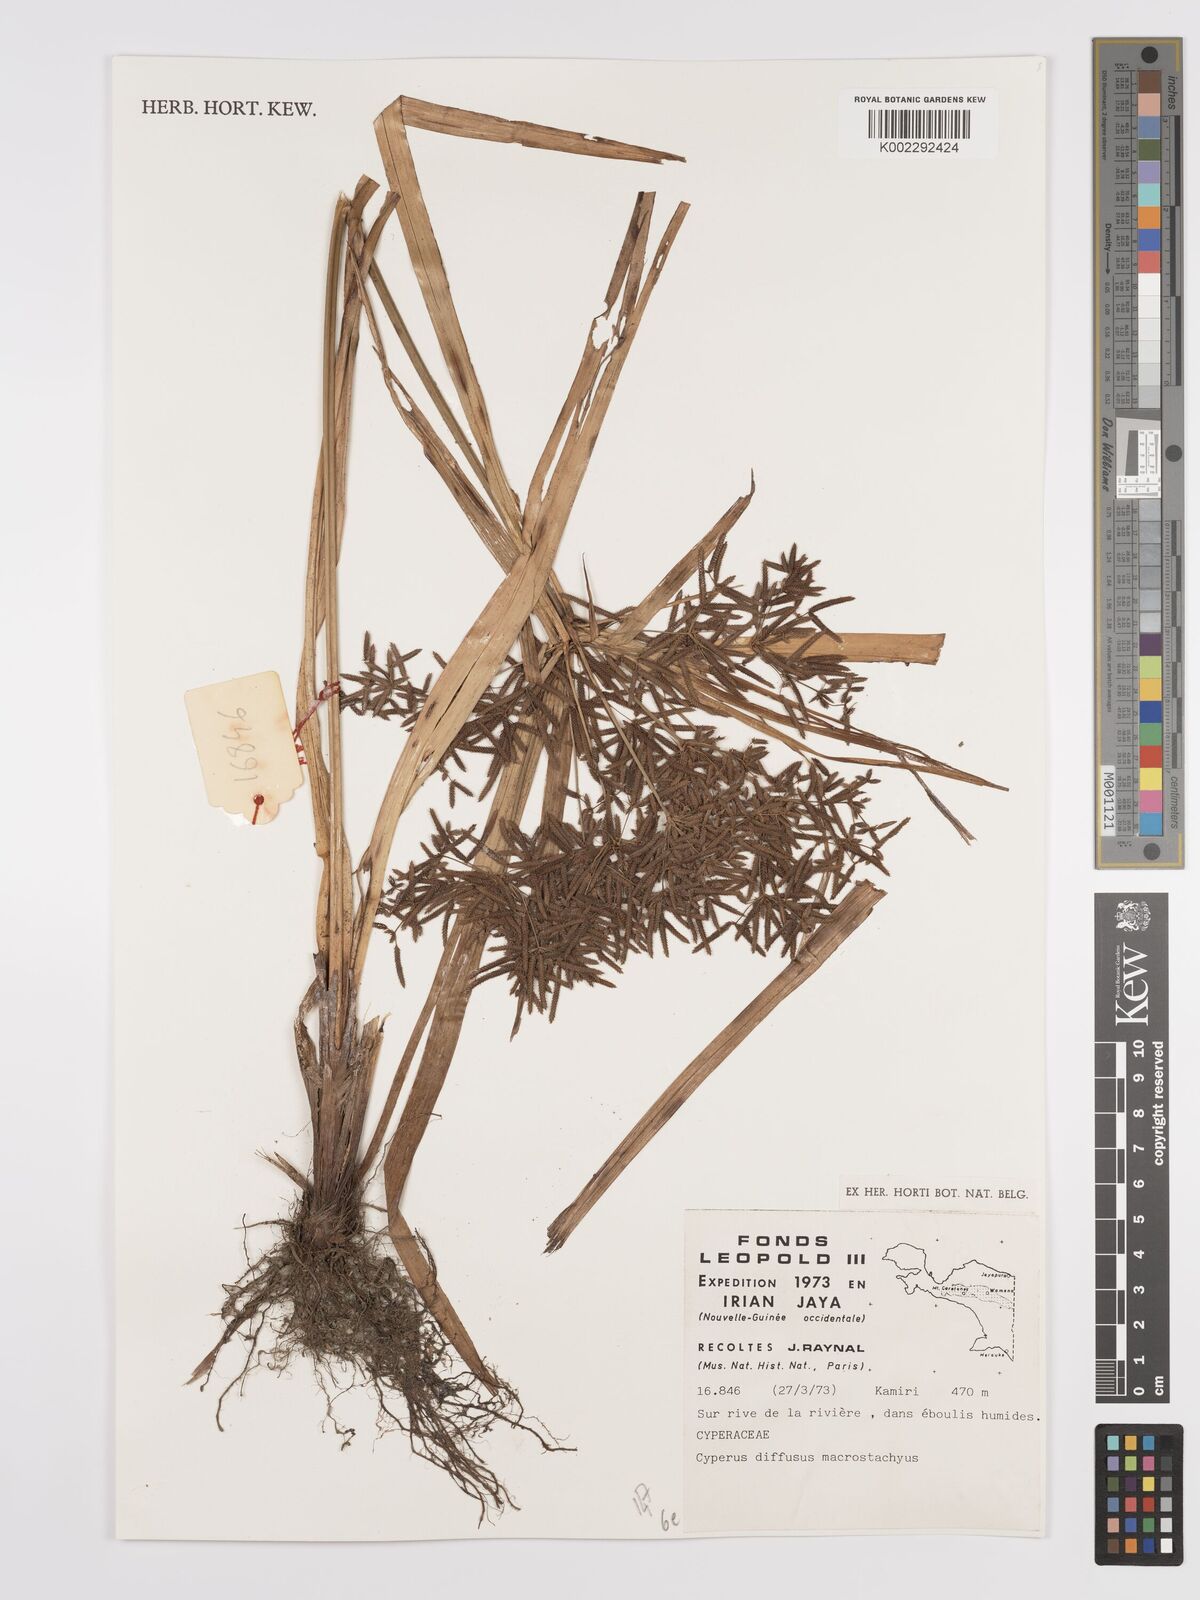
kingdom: Plantae
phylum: Tracheophyta
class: Liliopsida
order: Poales
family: Cyperaceae
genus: Cyperus
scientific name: Cyperus diffusus
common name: Dwarf umbrella grass
